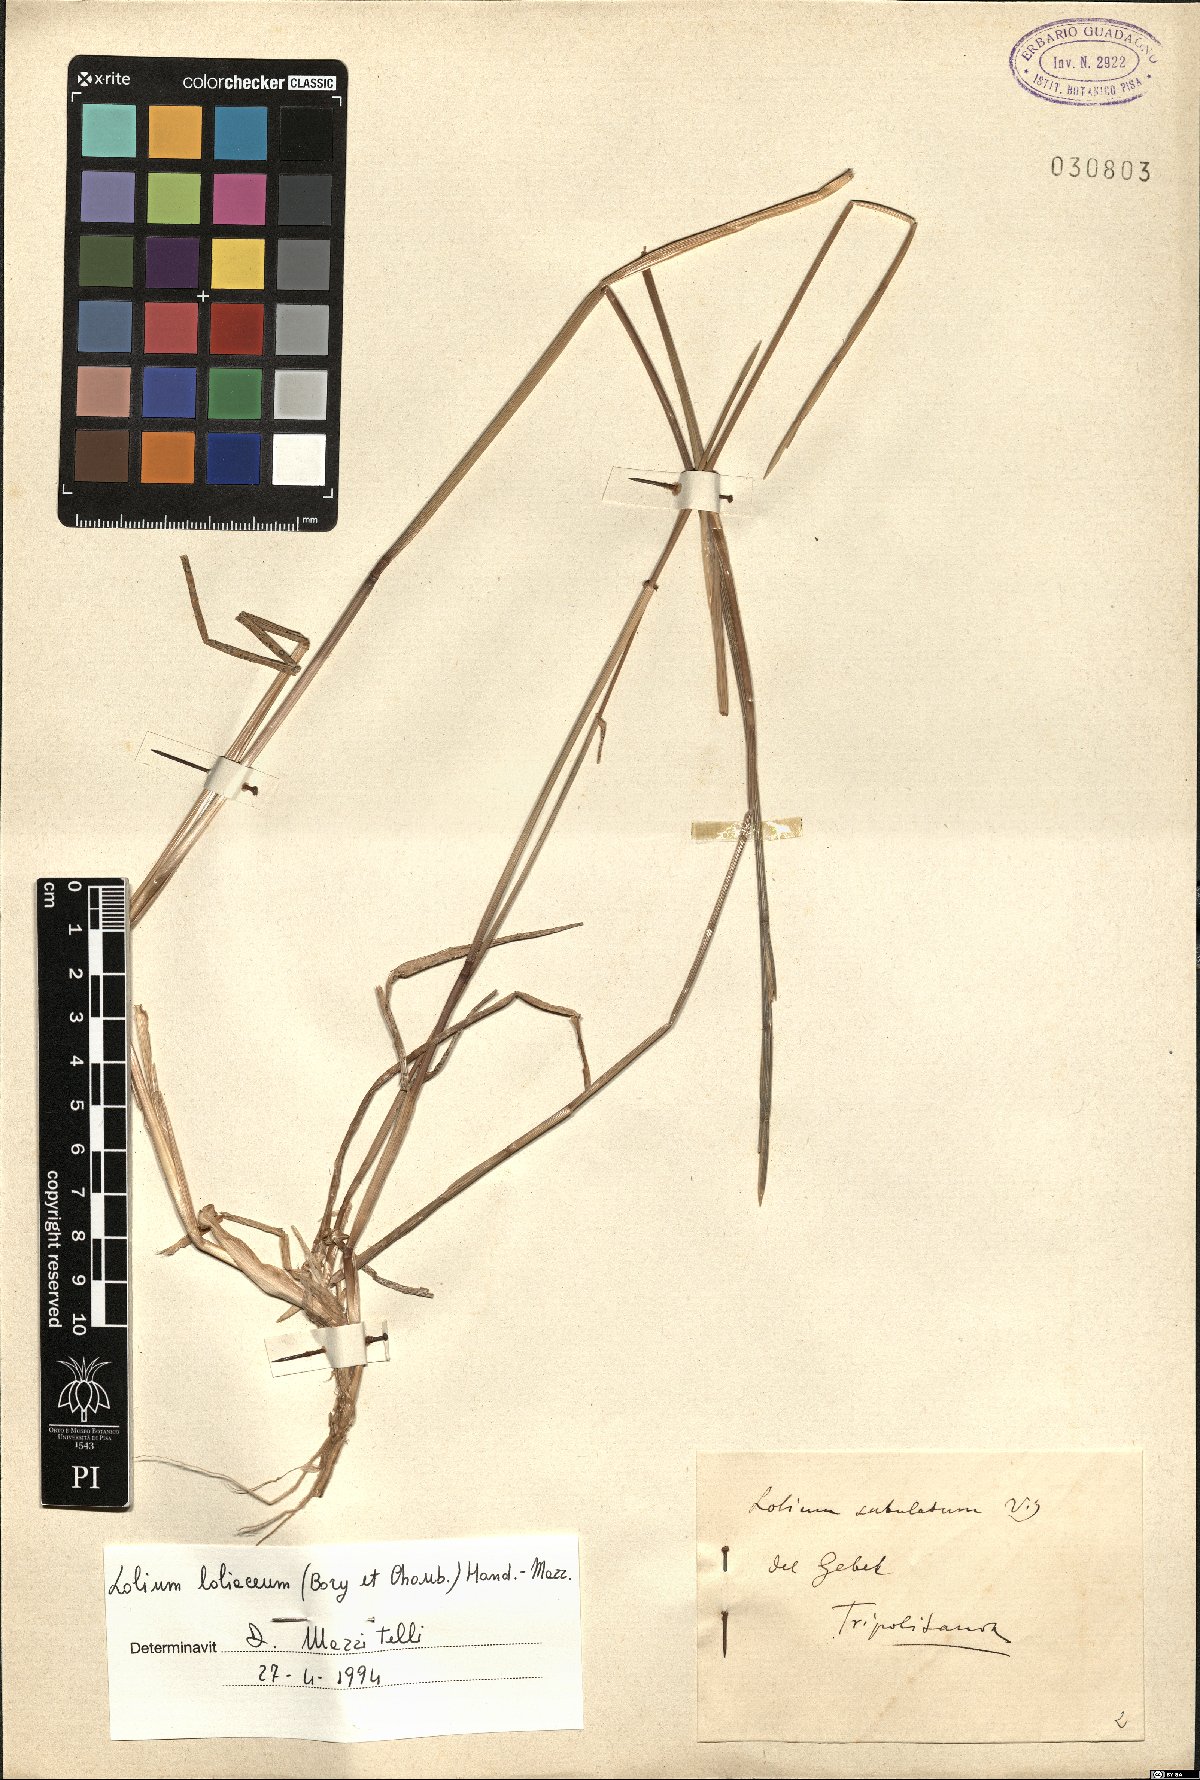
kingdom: Plantae
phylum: Tracheophyta
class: Liliopsida
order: Poales
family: Poaceae
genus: Lolium
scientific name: Lolium rigidum
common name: Wimmera ryegrass
